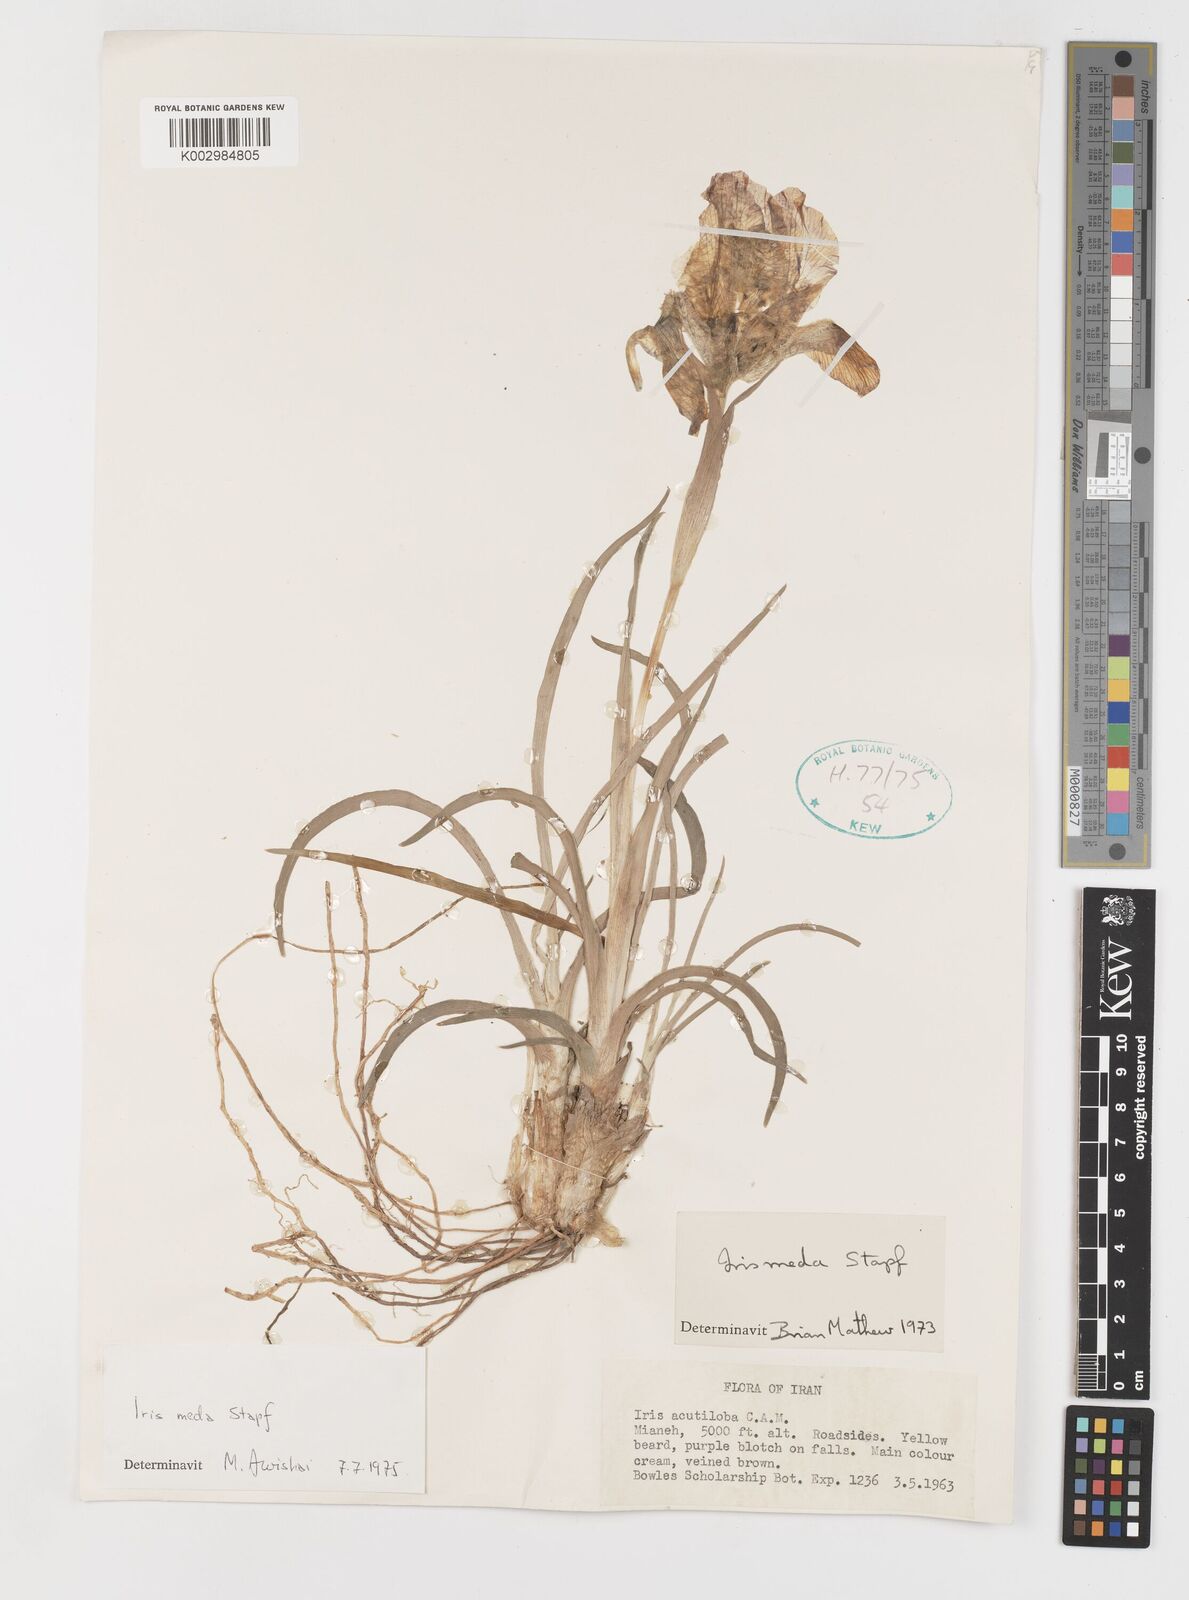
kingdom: Plantae
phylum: Tracheophyta
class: Liliopsida
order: Asparagales
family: Iridaceae
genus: Iris
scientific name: Iris meda
